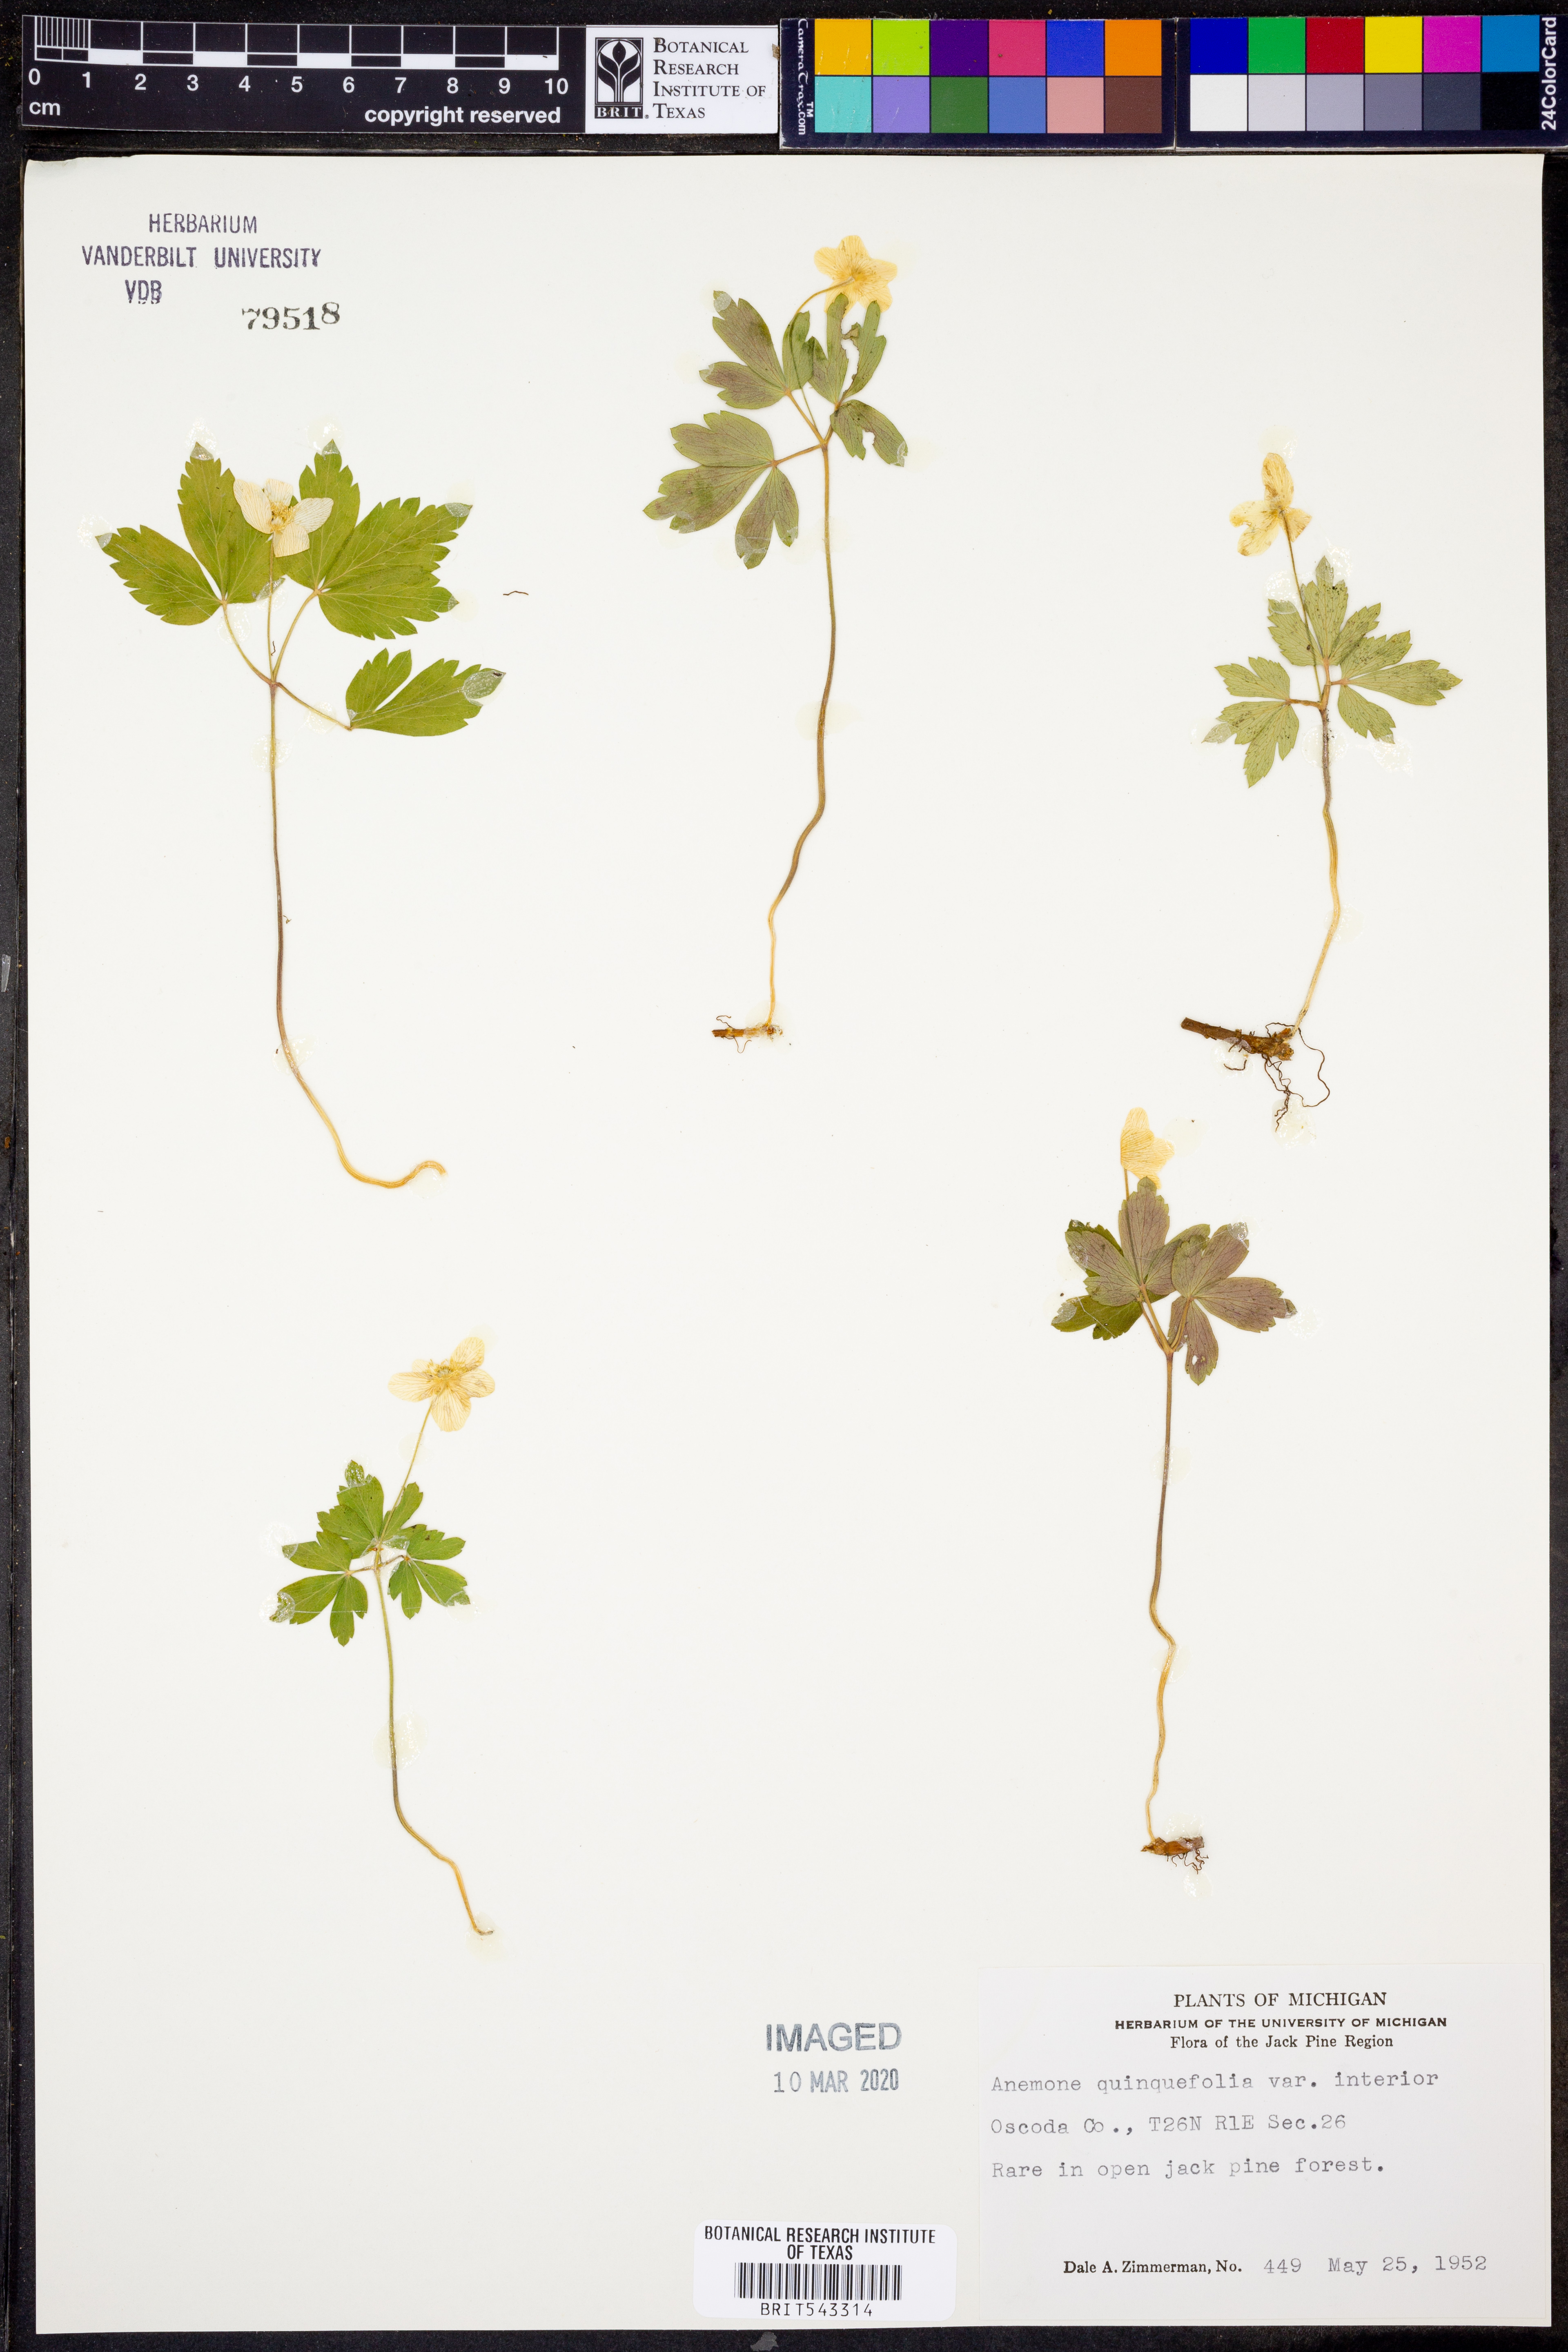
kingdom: Plantae
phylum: Tracheophyta
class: Magnoliopsida
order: Ranunculales
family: Ranunculaceae
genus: Anemone
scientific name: Anemone quinquefolia
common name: Wood anemone
